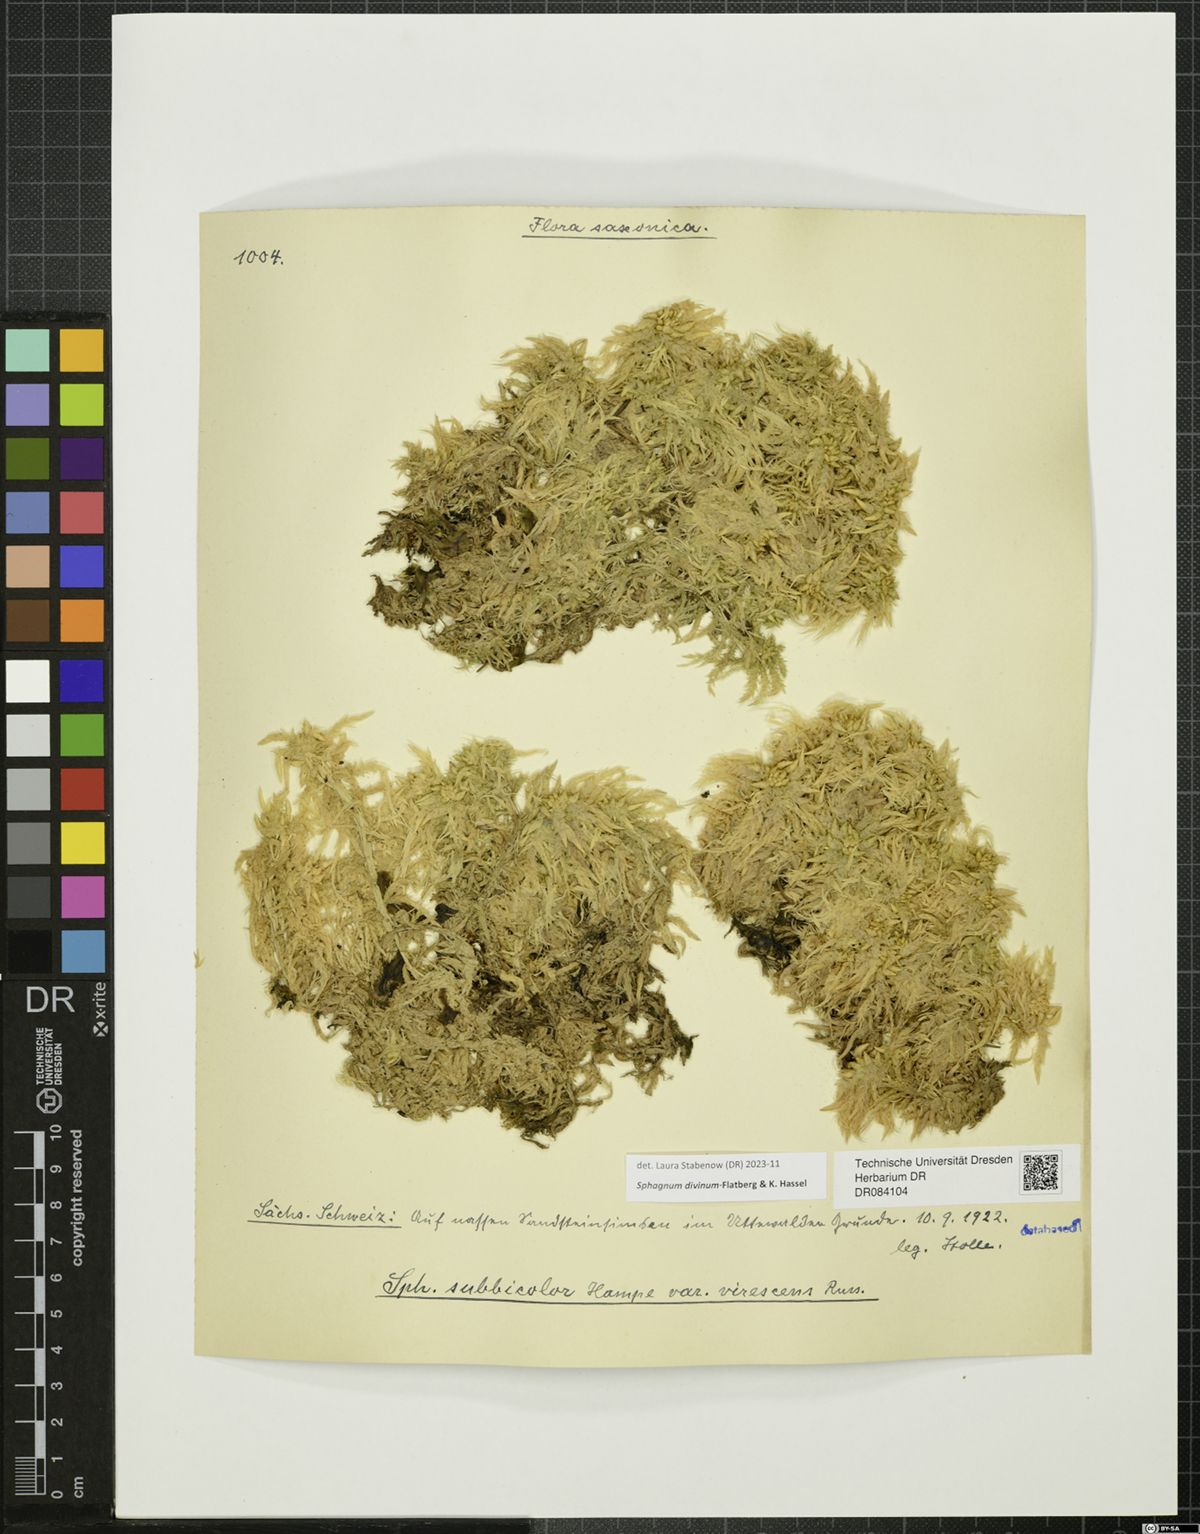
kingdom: Plantae
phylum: Bryophyta
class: Sphagnopsida
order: Sphagnales
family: Sphagnaceae
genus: Sphagnum
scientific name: Sphagnum divinum
